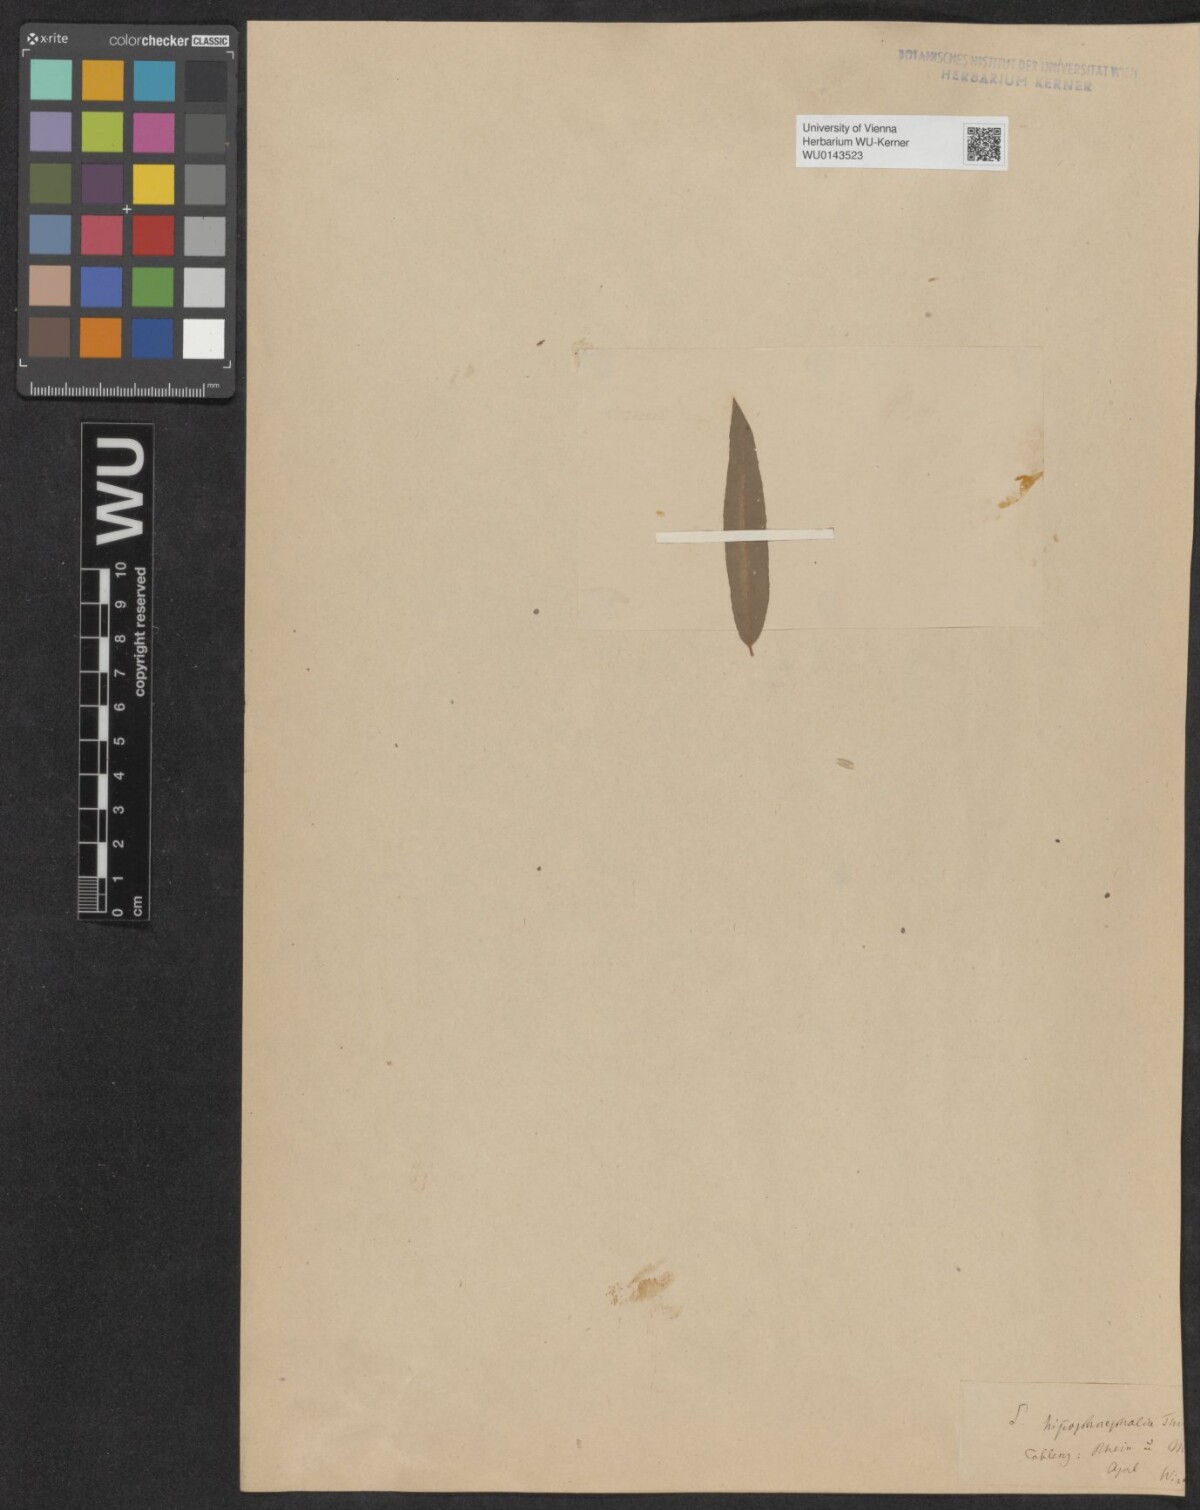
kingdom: Plantae
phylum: Tracheophyta
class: Magnoliopsida
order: Malpighiales
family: Salicaceae
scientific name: Salicaceae
